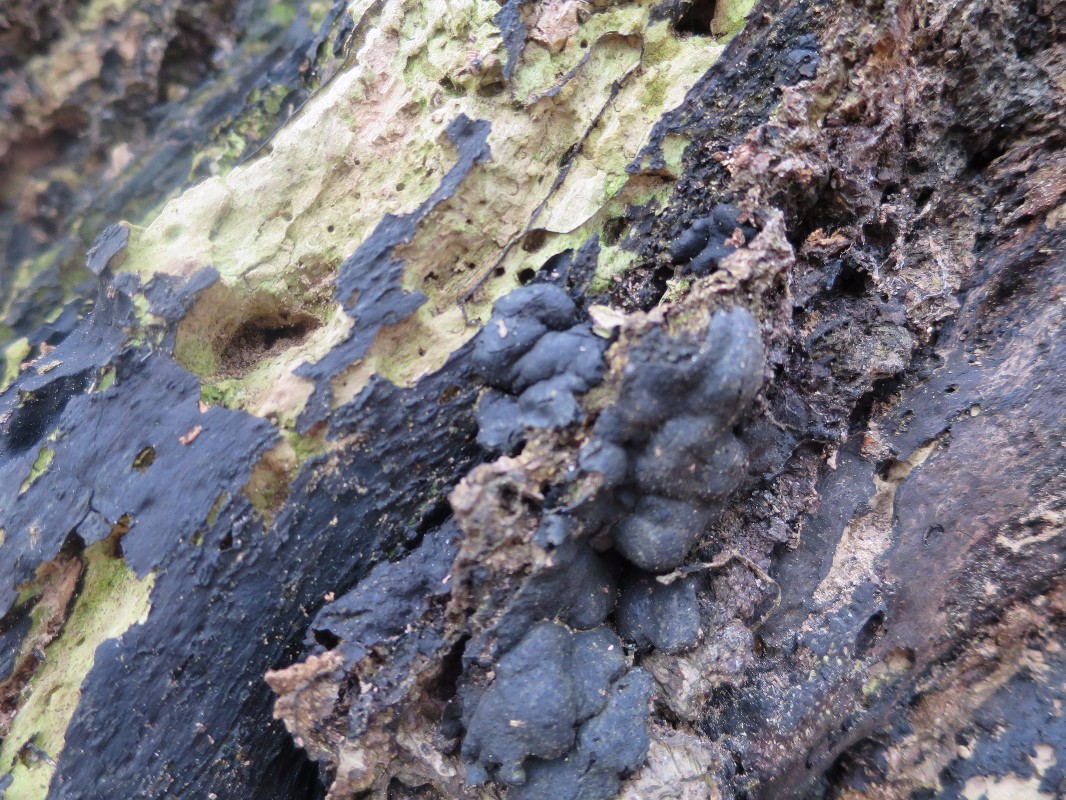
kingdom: Fungi
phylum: Ascomycota
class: Sordariomycetes
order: Xylariales
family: Xylariaceae
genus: Kretzschmaria
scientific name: Kretzschmaria deusta
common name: stor kulsvamp
